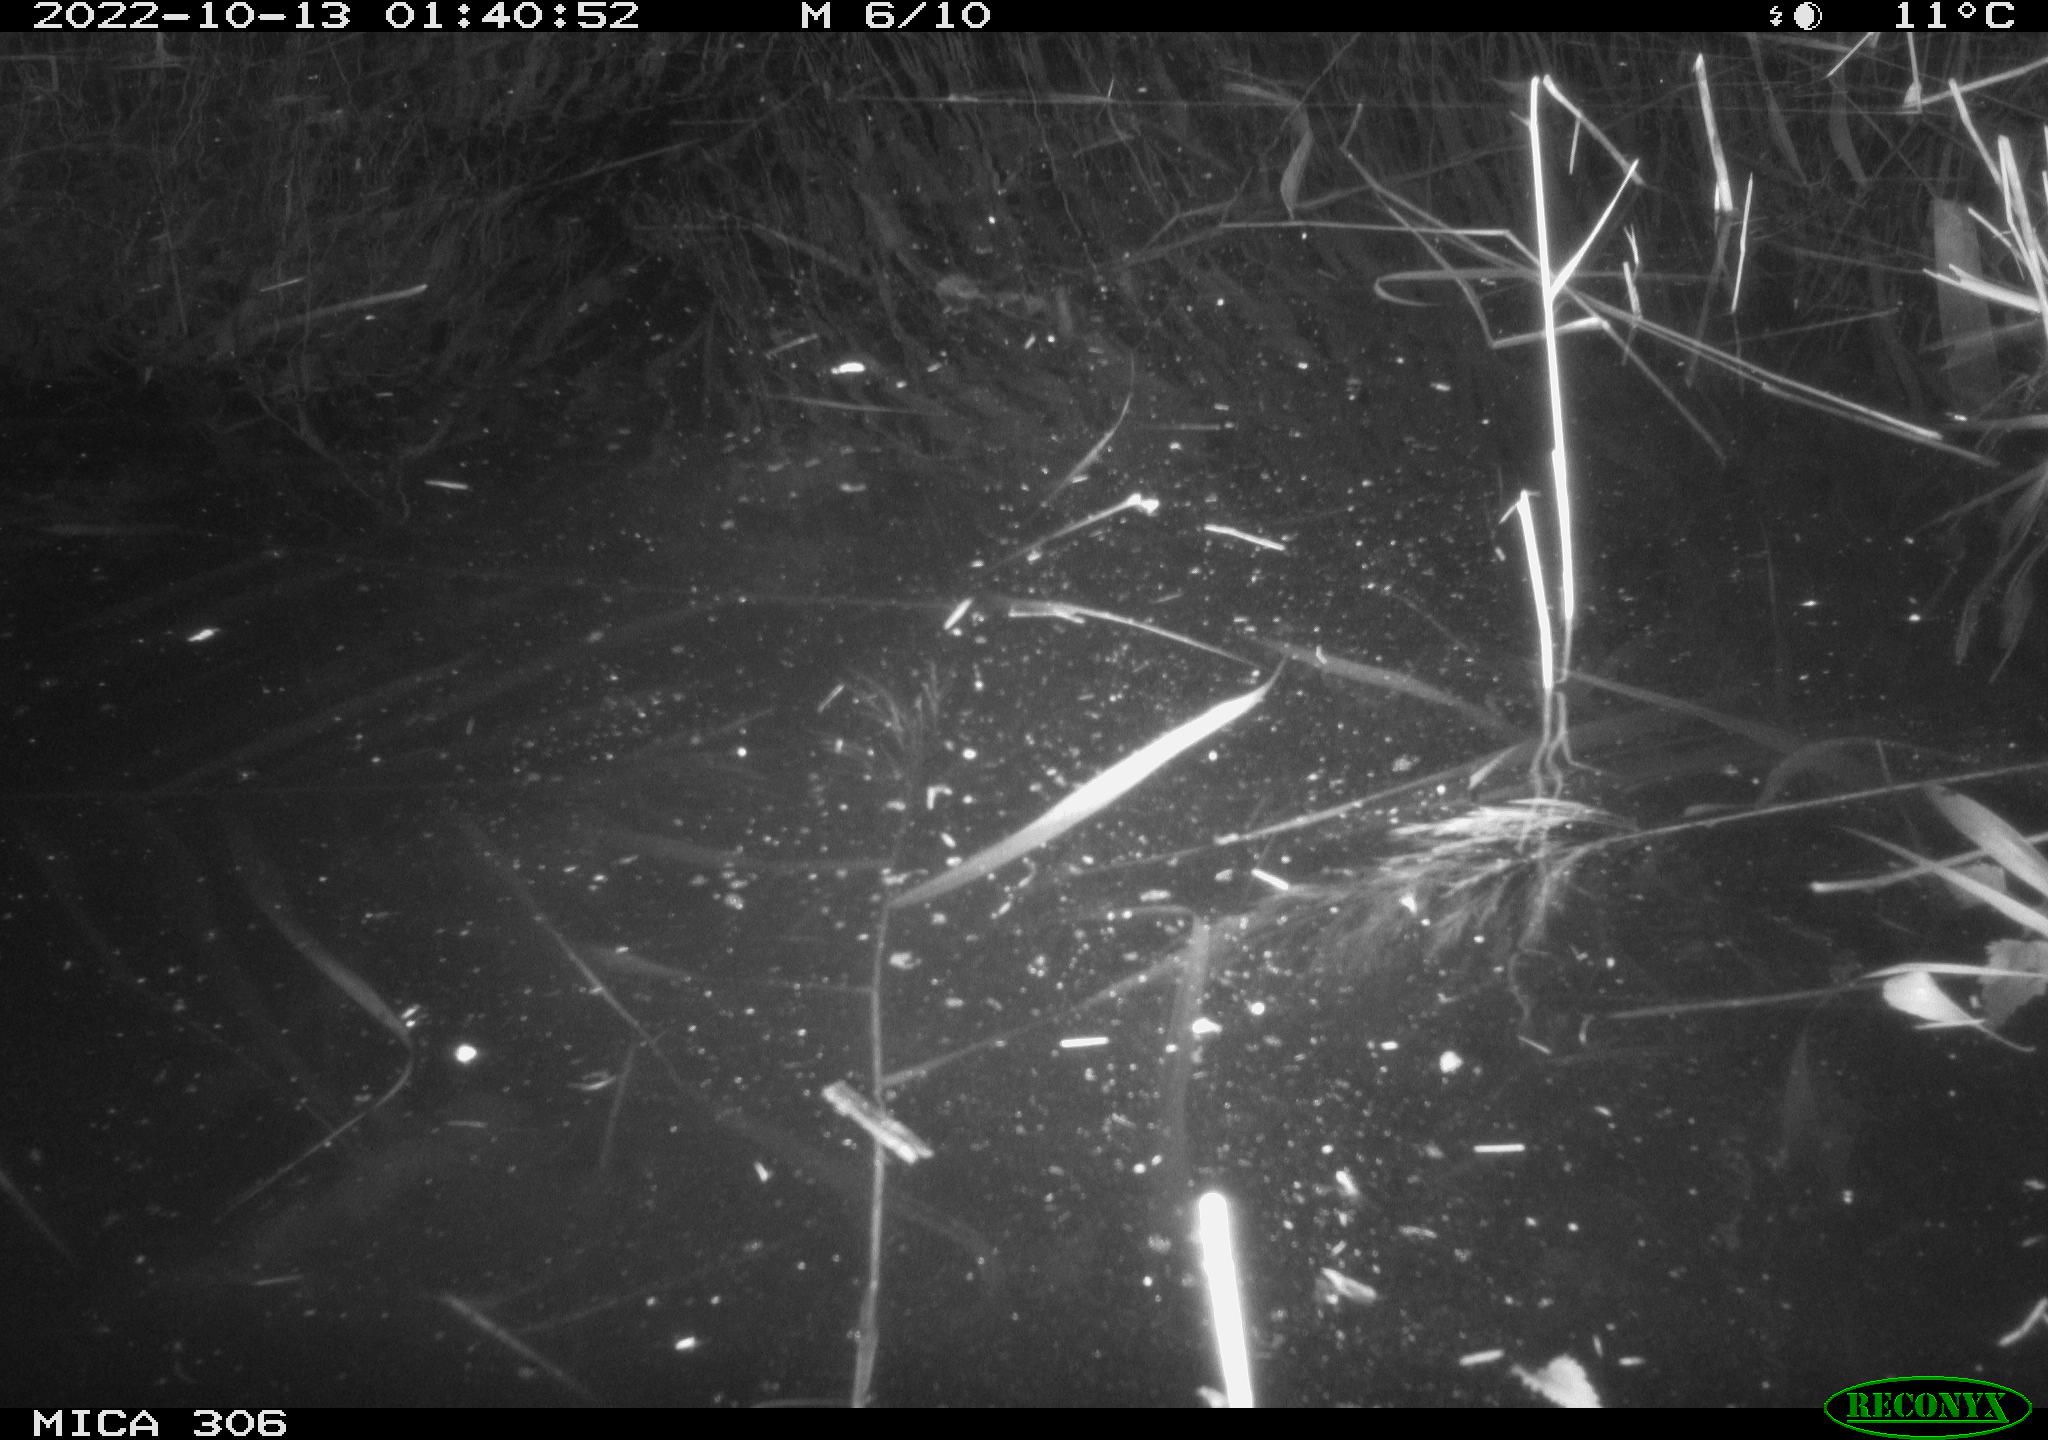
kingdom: Animalia
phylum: Chordata
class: Mammalia
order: Rodentia
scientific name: Rodentia
